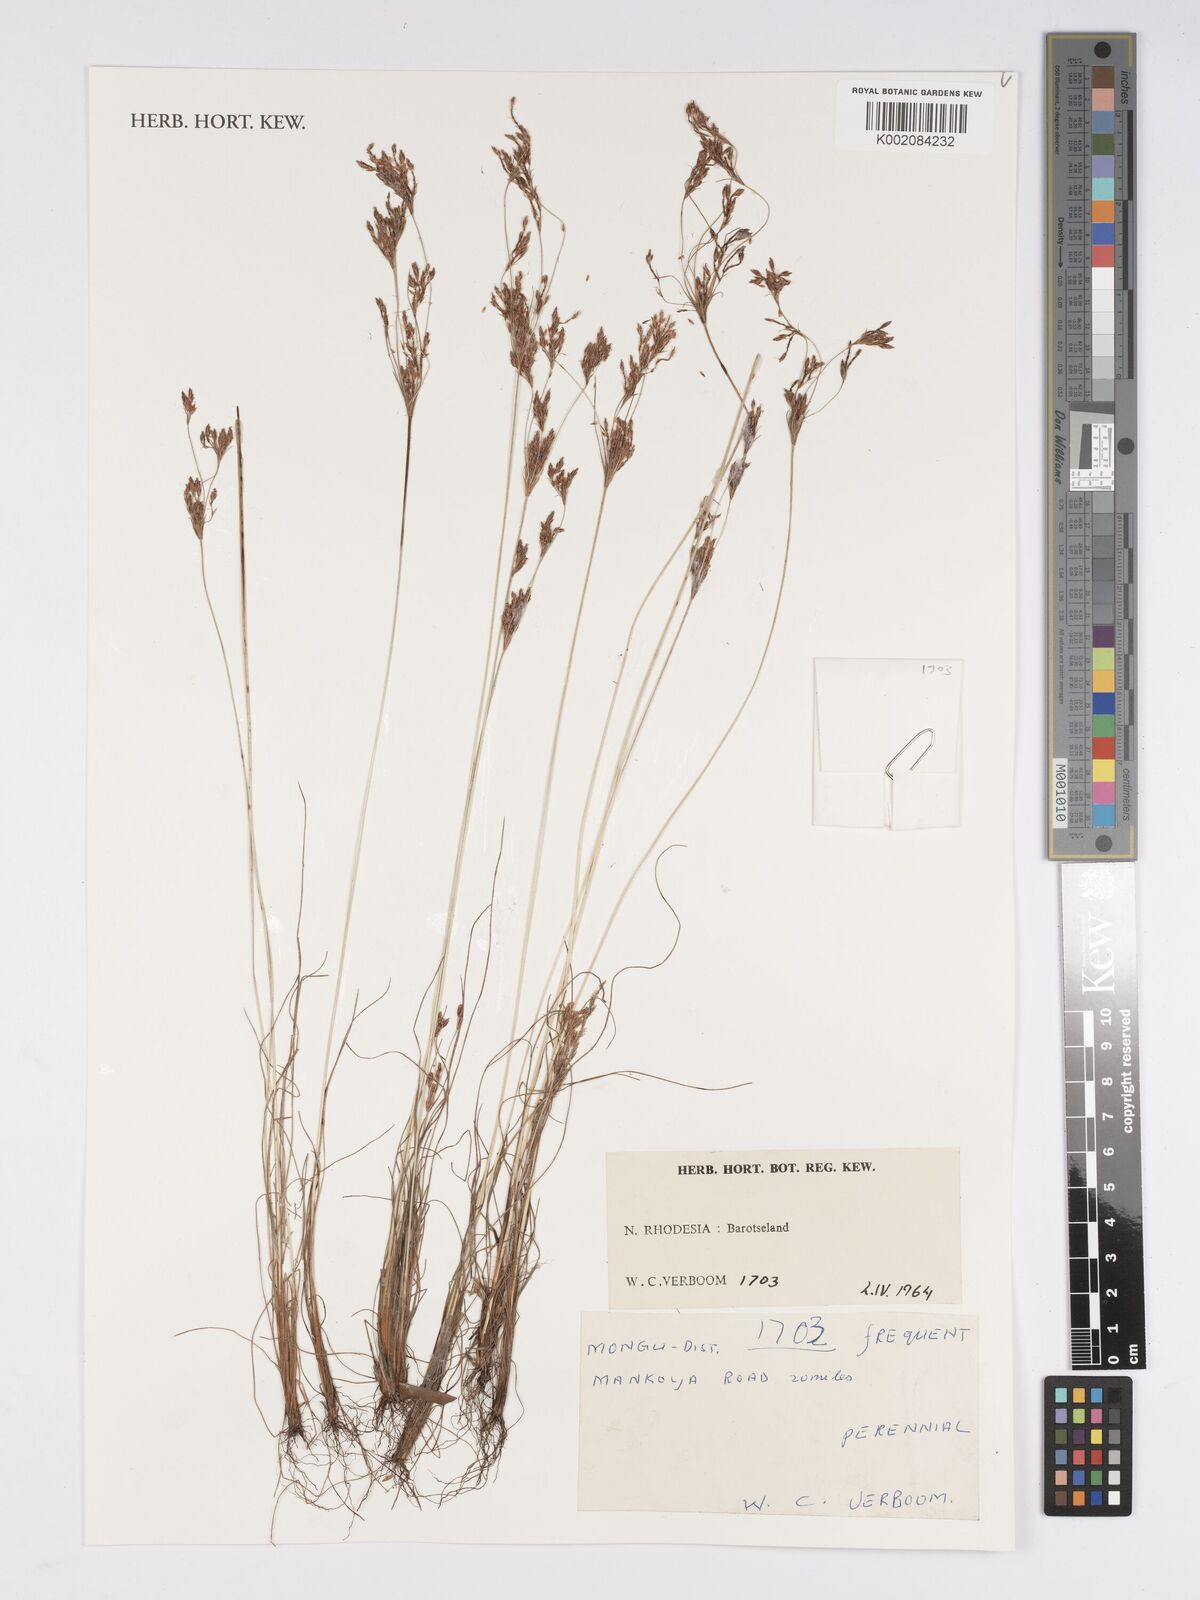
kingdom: Plantae
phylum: Tracheophyta
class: Liliopsida
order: Poales
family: Cyperaceae
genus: Bulbostylis
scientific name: Bulbostylis
